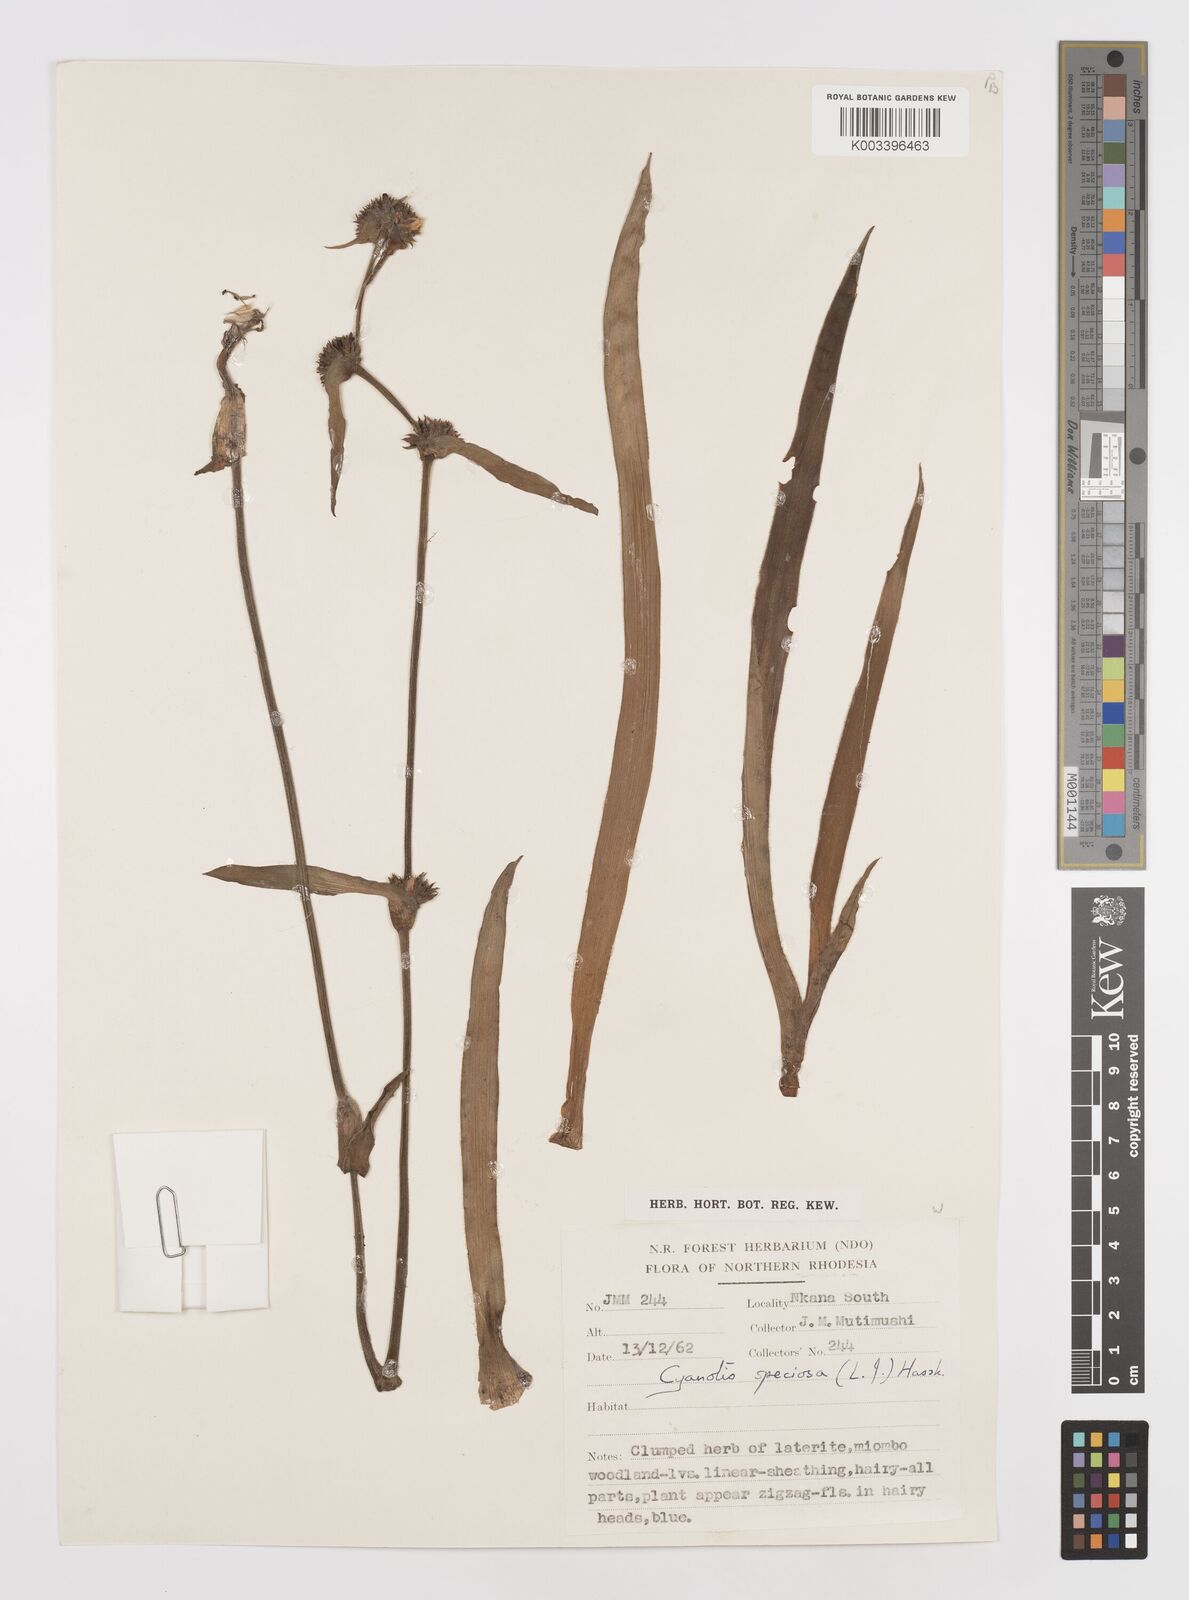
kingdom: Plantae
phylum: Tracheophyta
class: Liliopsida
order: Commelinales
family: Commelinaceae
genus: Cyanotis
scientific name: Cyanotis speciosa
